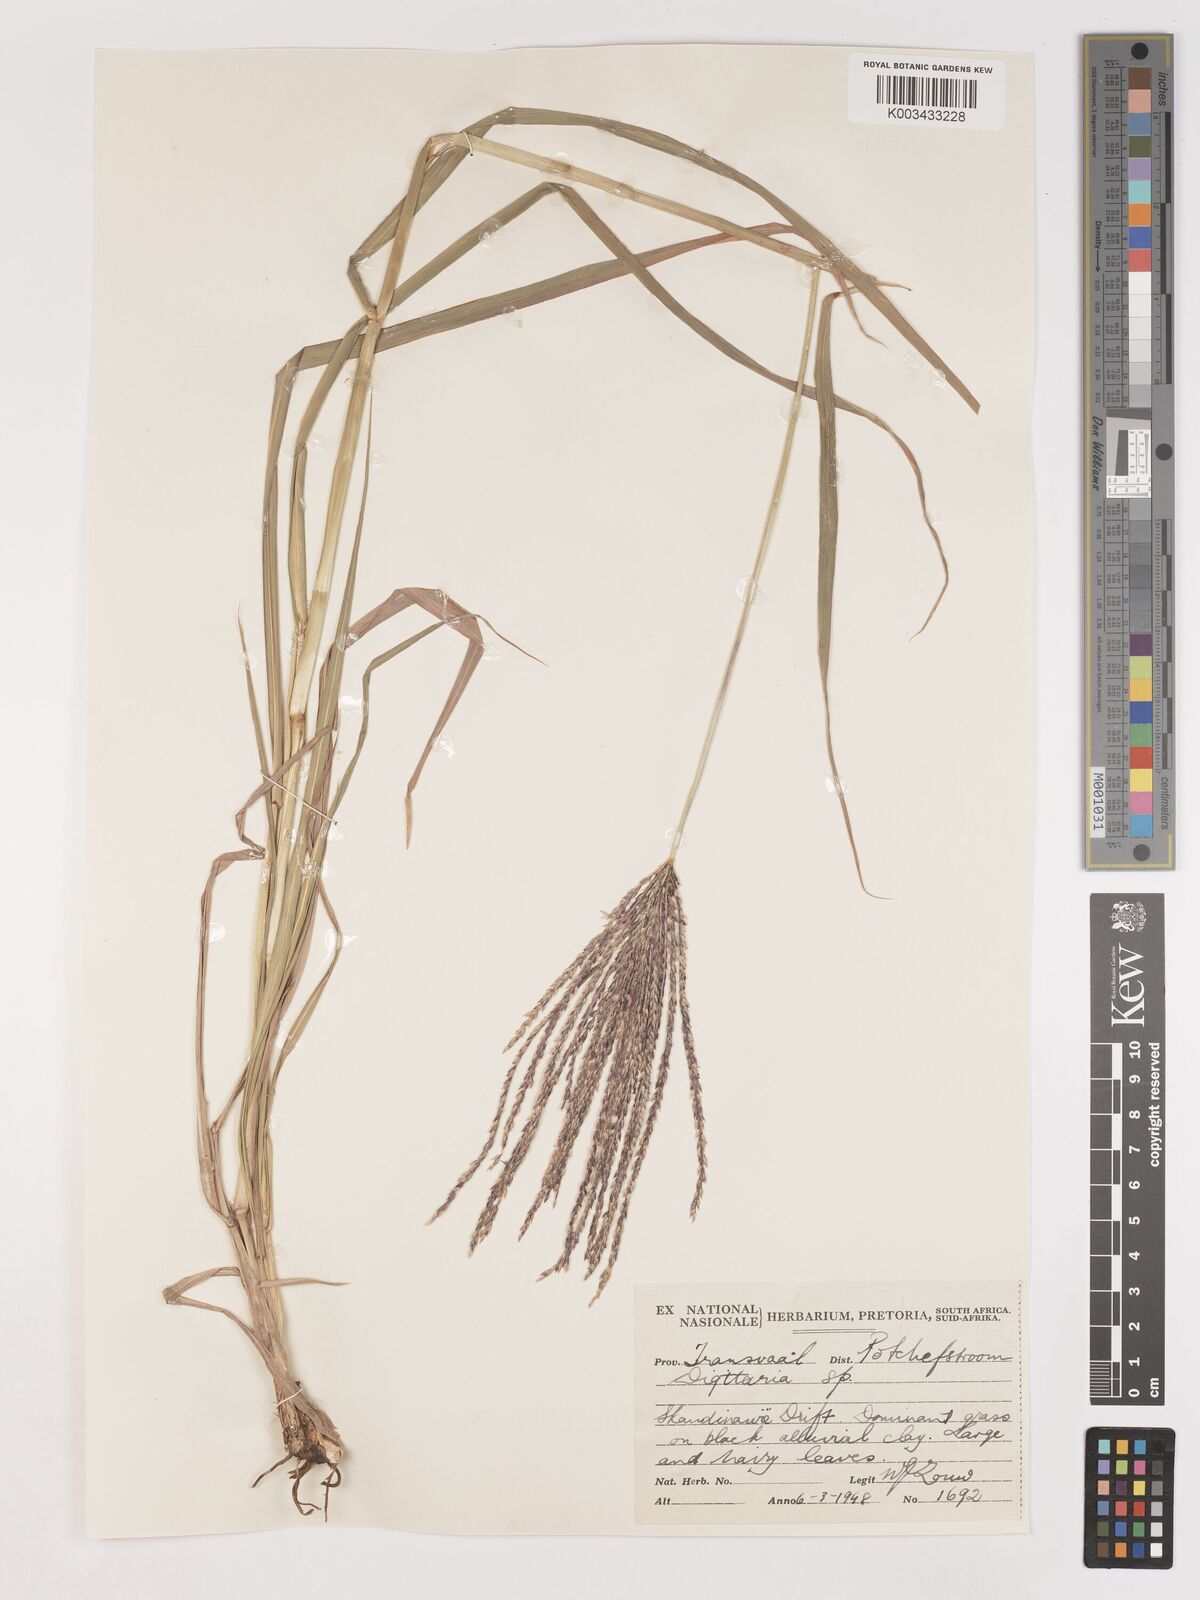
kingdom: Plantae
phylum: Tracheophyta
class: Liliopsida
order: Poales
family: Poaceae
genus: Digitaria
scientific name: Digitaria eriantha
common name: Digitgrass
